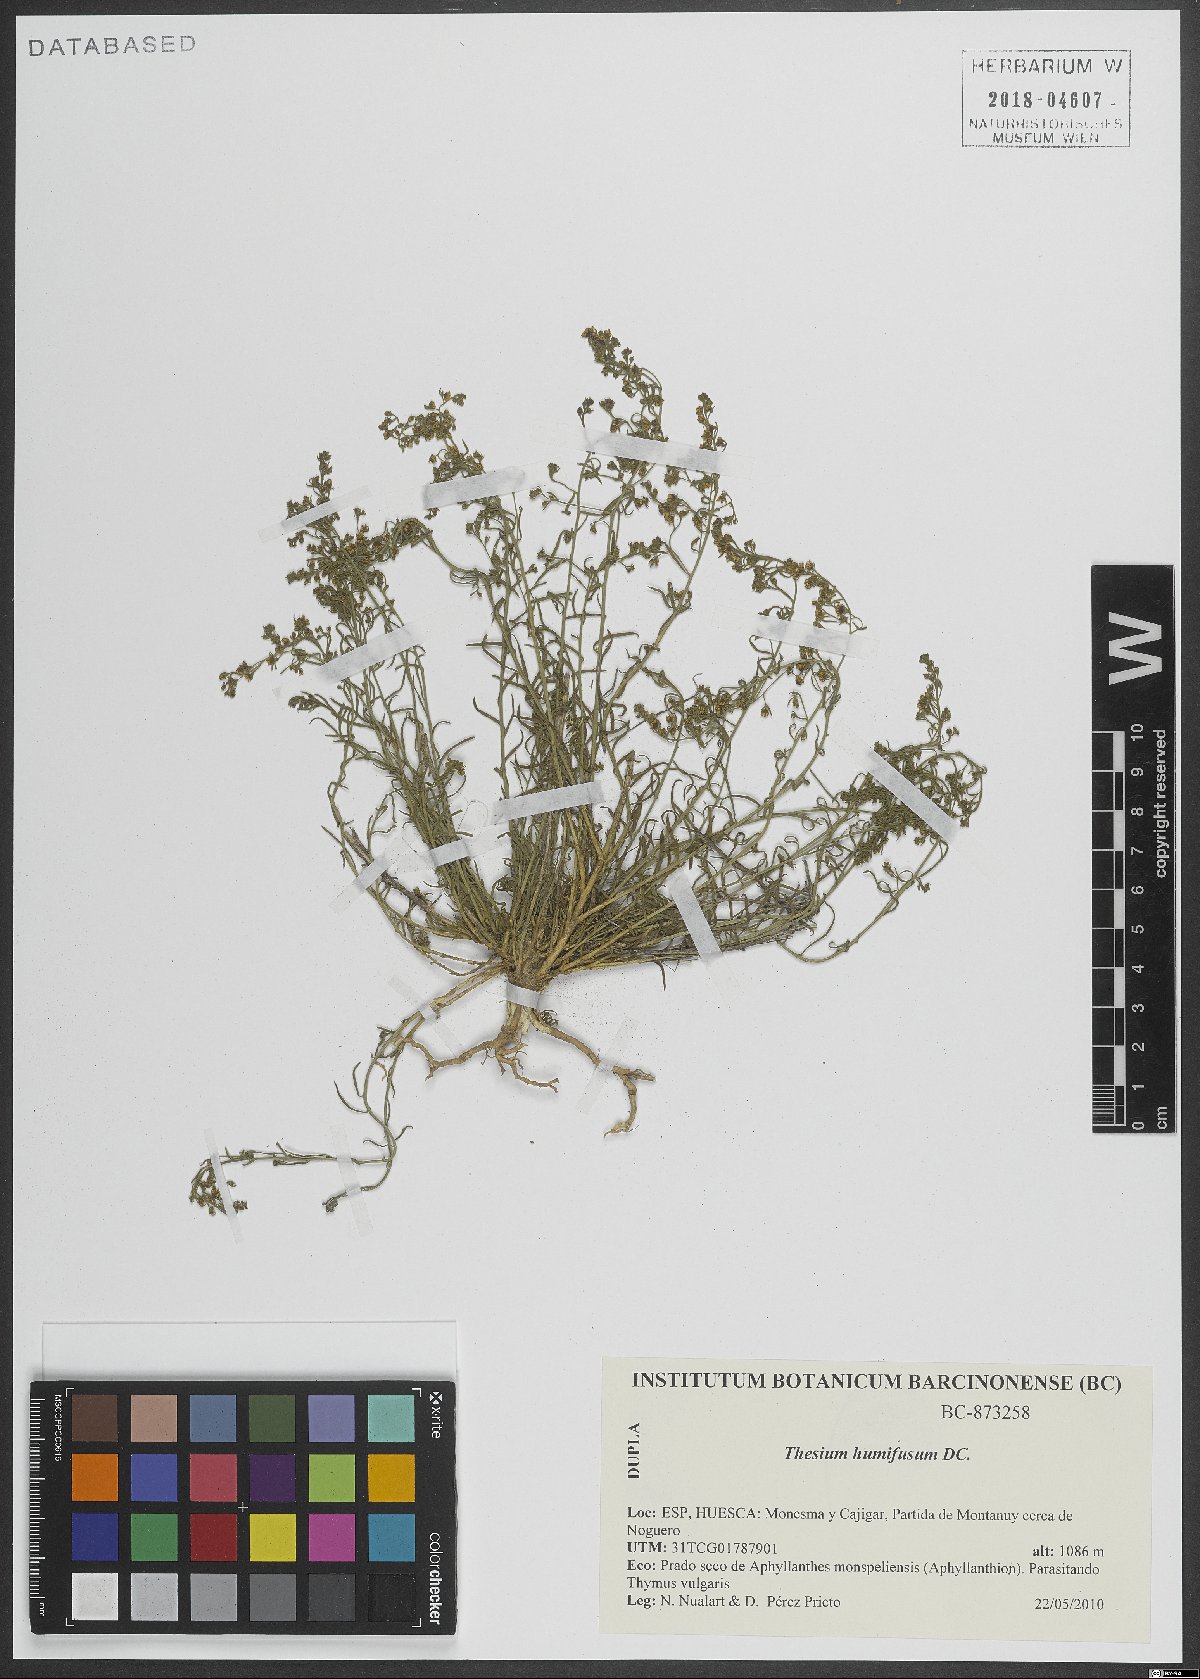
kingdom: Plantae
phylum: Tracheophyta
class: Magnoliopsida
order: Santalales
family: Thesiaceae
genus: Thesium
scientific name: Thesium humifusum
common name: Bastard-toadflax
